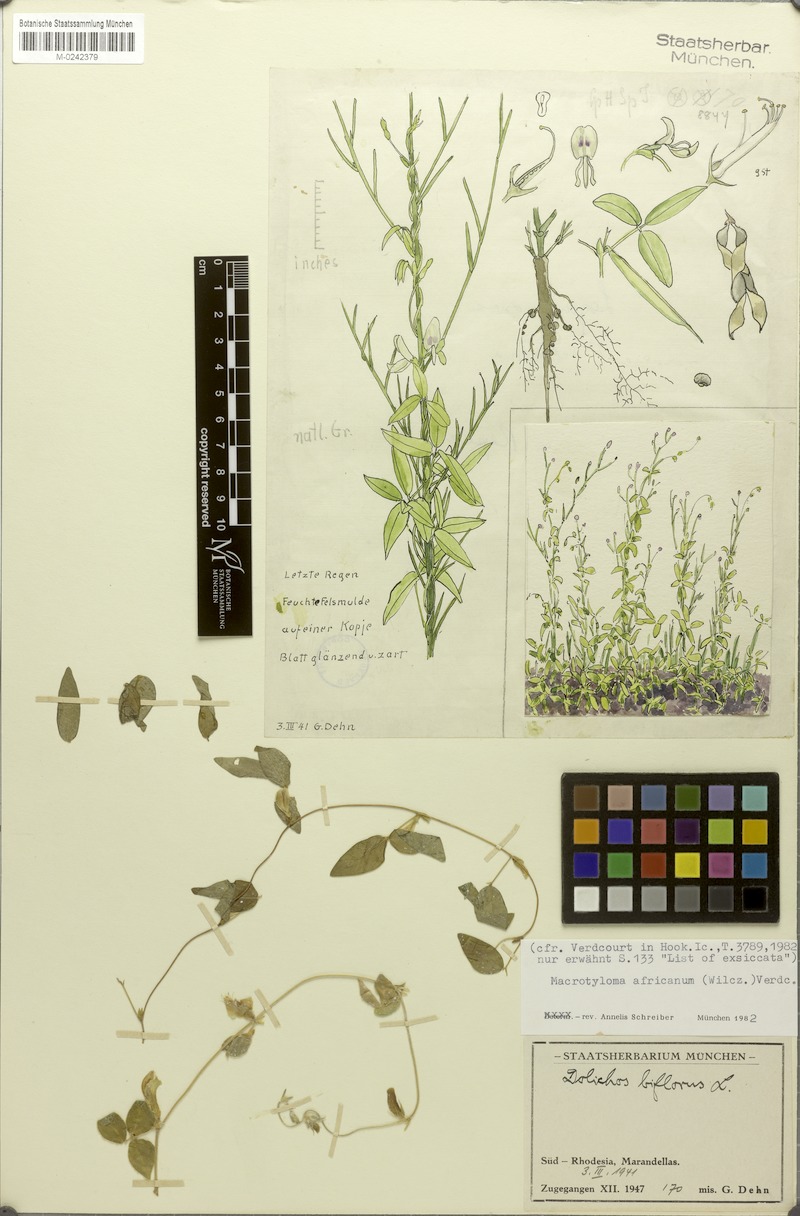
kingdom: Plantae
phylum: Tracheophyta
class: Magnoliopsida
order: Fabales
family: Fabaceae
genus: Macrotyloma
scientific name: Macrotyloma africanum
